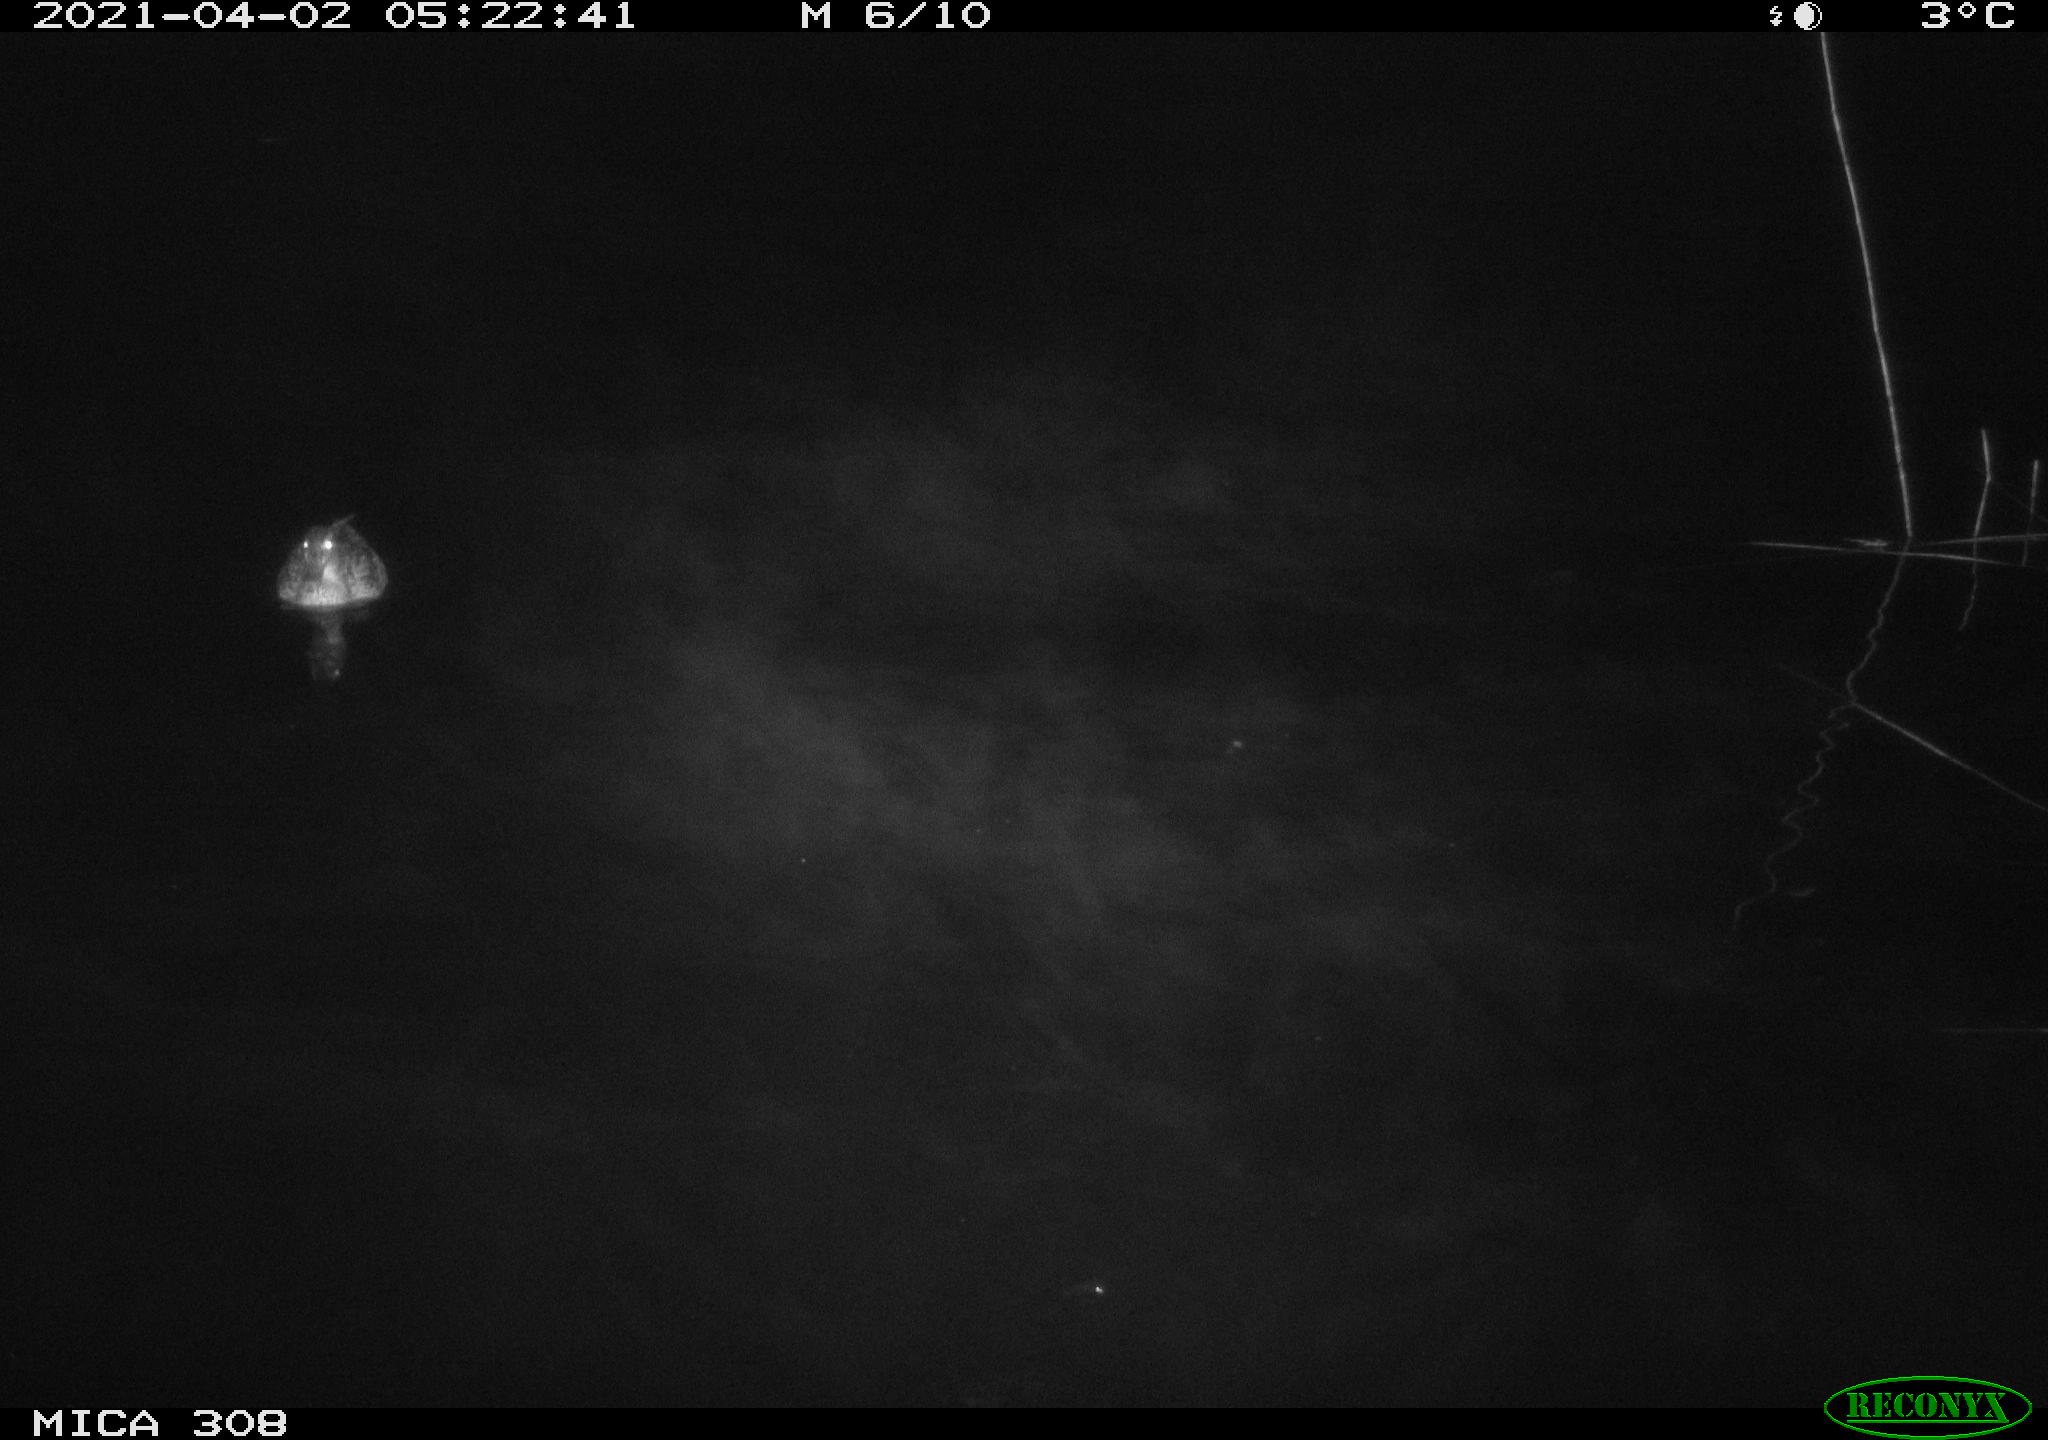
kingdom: Animalia
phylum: Chordata
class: Aves
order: Anseriformes
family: Anatidae
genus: Anas
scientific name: Anas platyrhynchos
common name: Mallard
